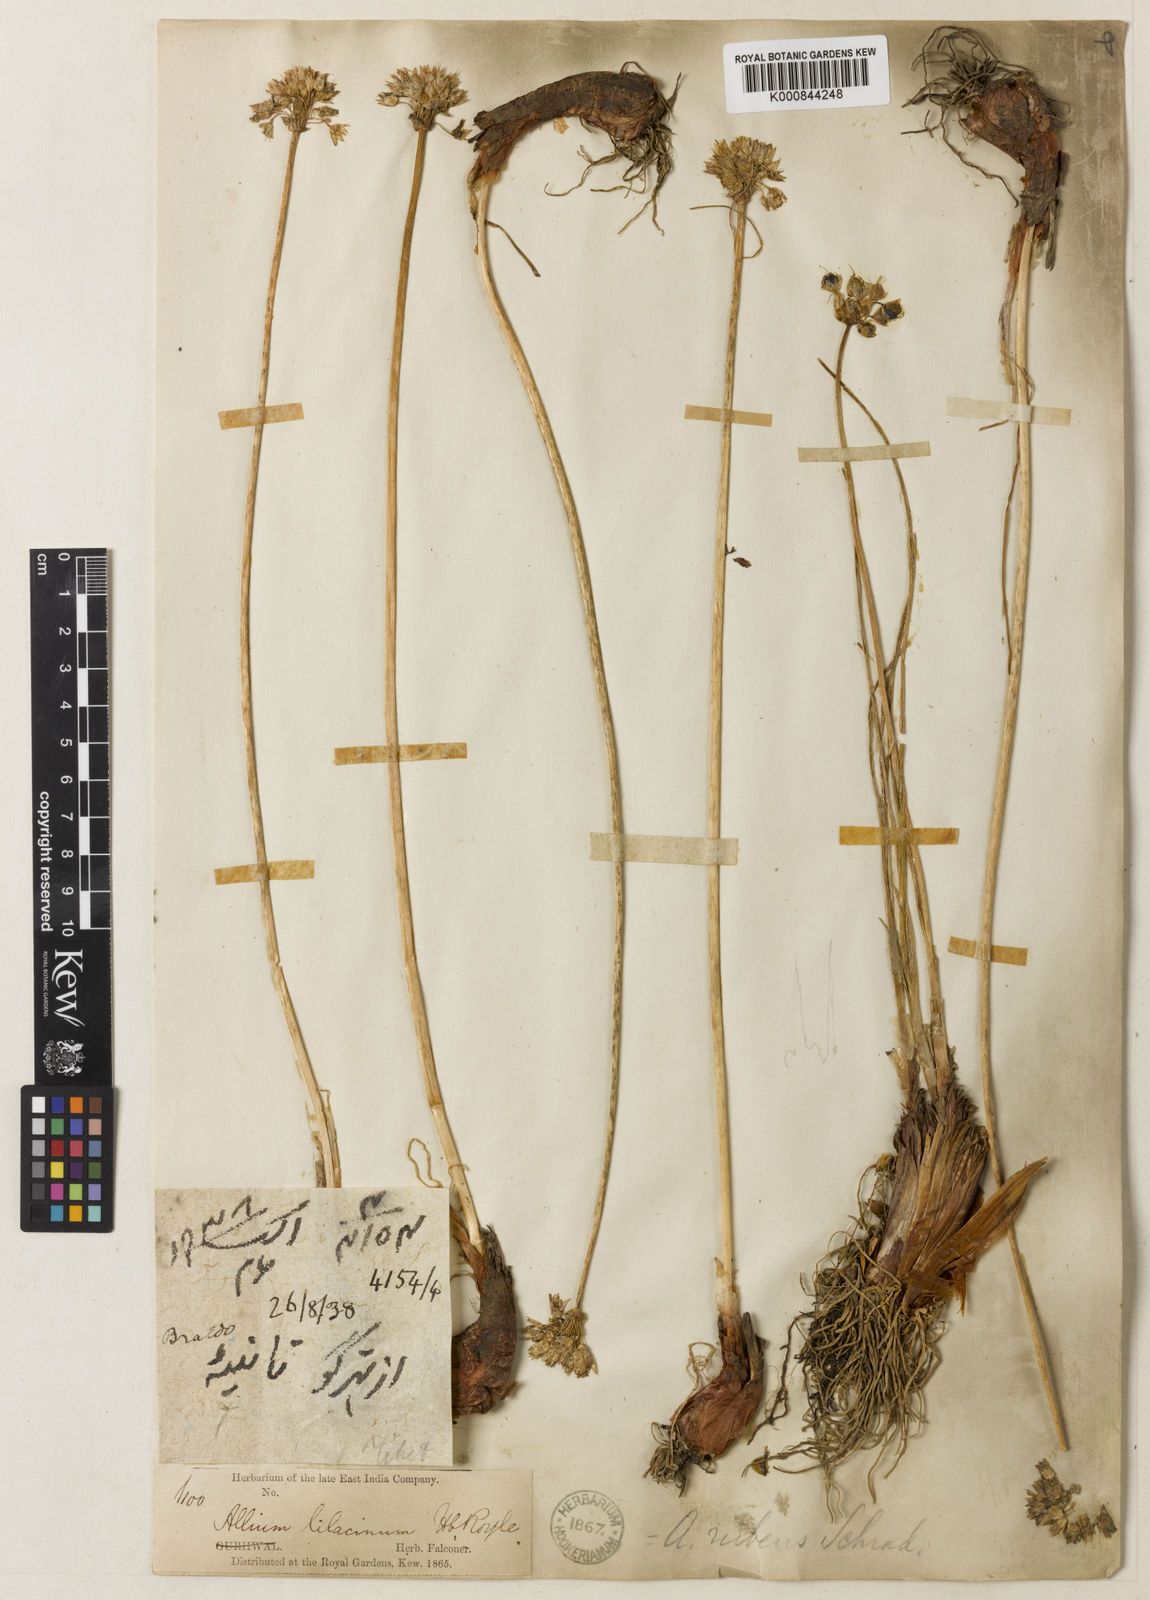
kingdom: Plantae
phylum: Tracheophyta
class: Liliopsida
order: Asparagales
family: Amaryllidaceae
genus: Allium
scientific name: Allium roylei
